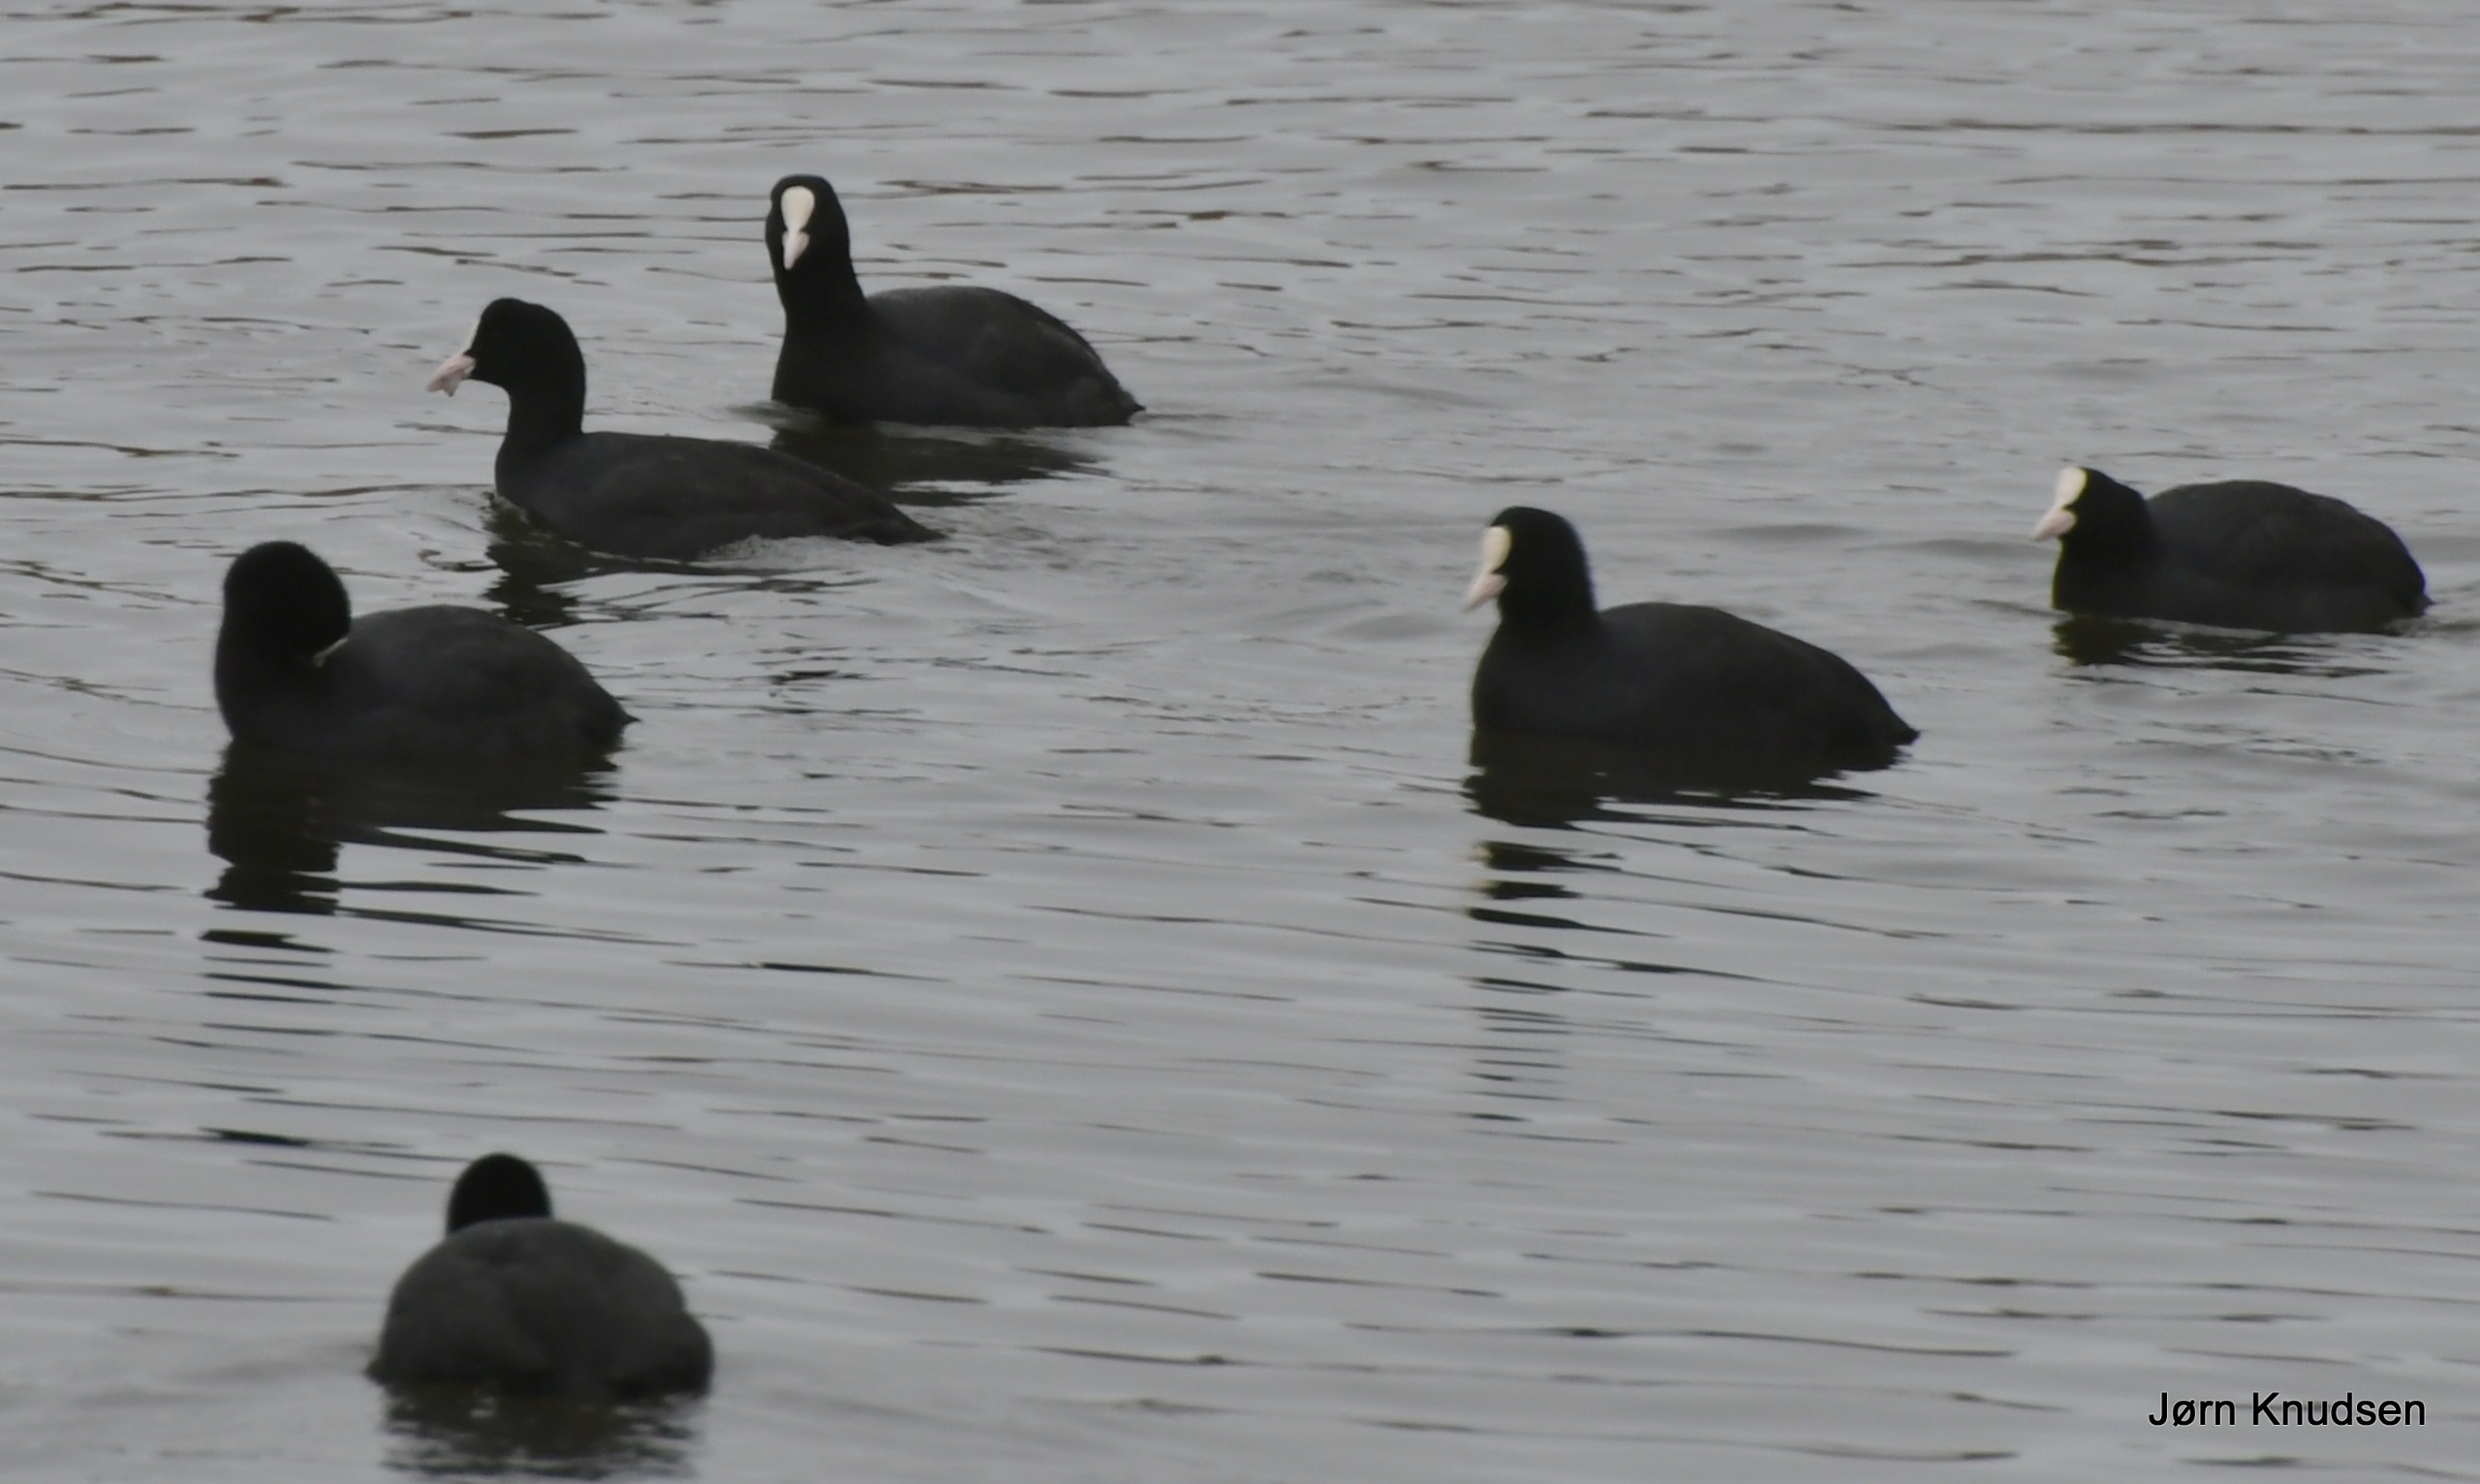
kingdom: Animalia
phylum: Chordata
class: Aves
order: Gruiformes
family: Rallidae
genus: Fulica
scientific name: Fulica atra
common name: Blishøne
